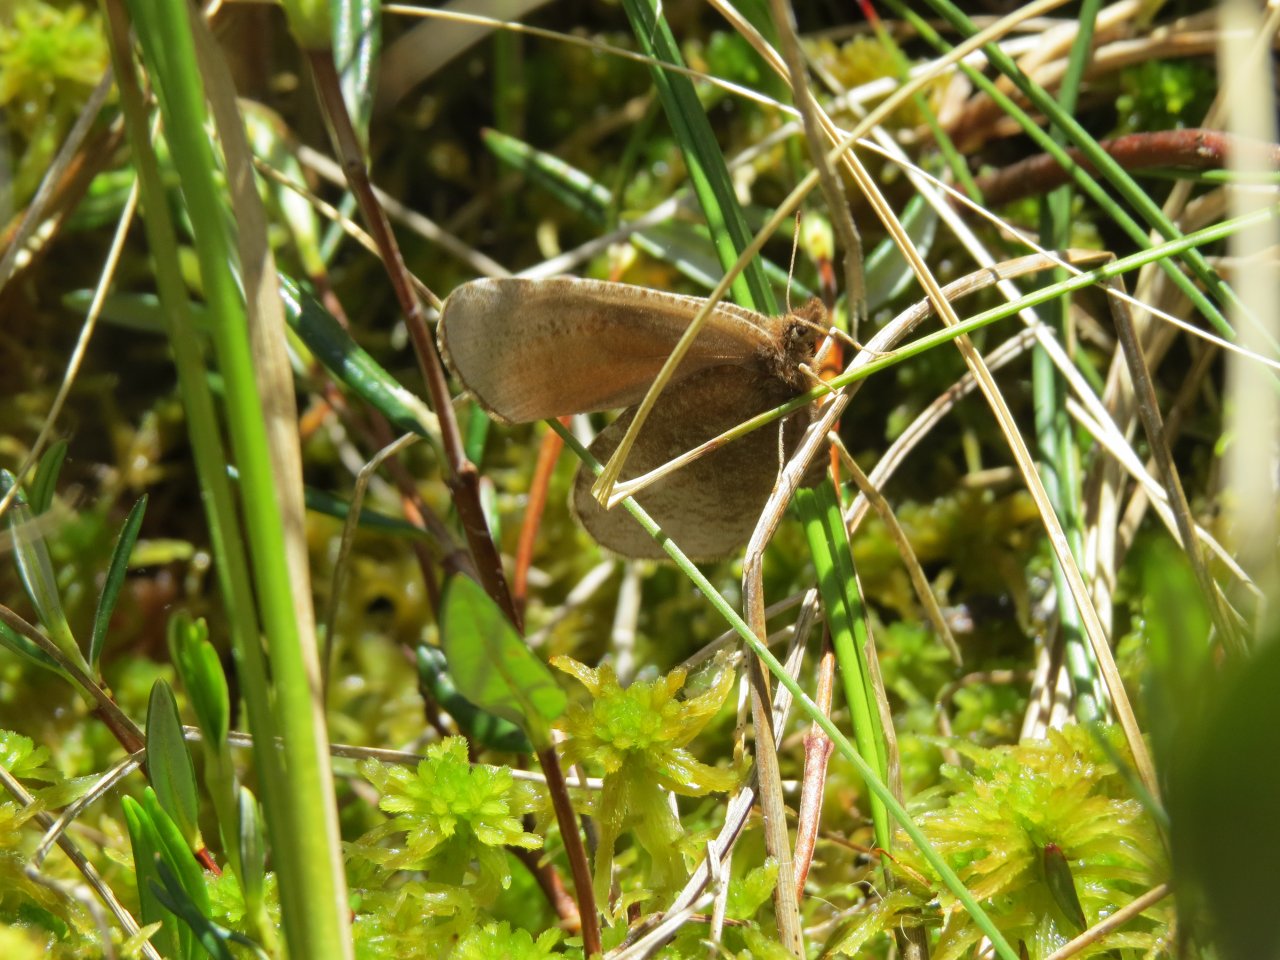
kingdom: Animalia
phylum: Arthropoda
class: Insecta
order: Lepidoptera
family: Nymphalidae
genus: Erebia
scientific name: Erebia discoidalis
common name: Red-disked Alpine
